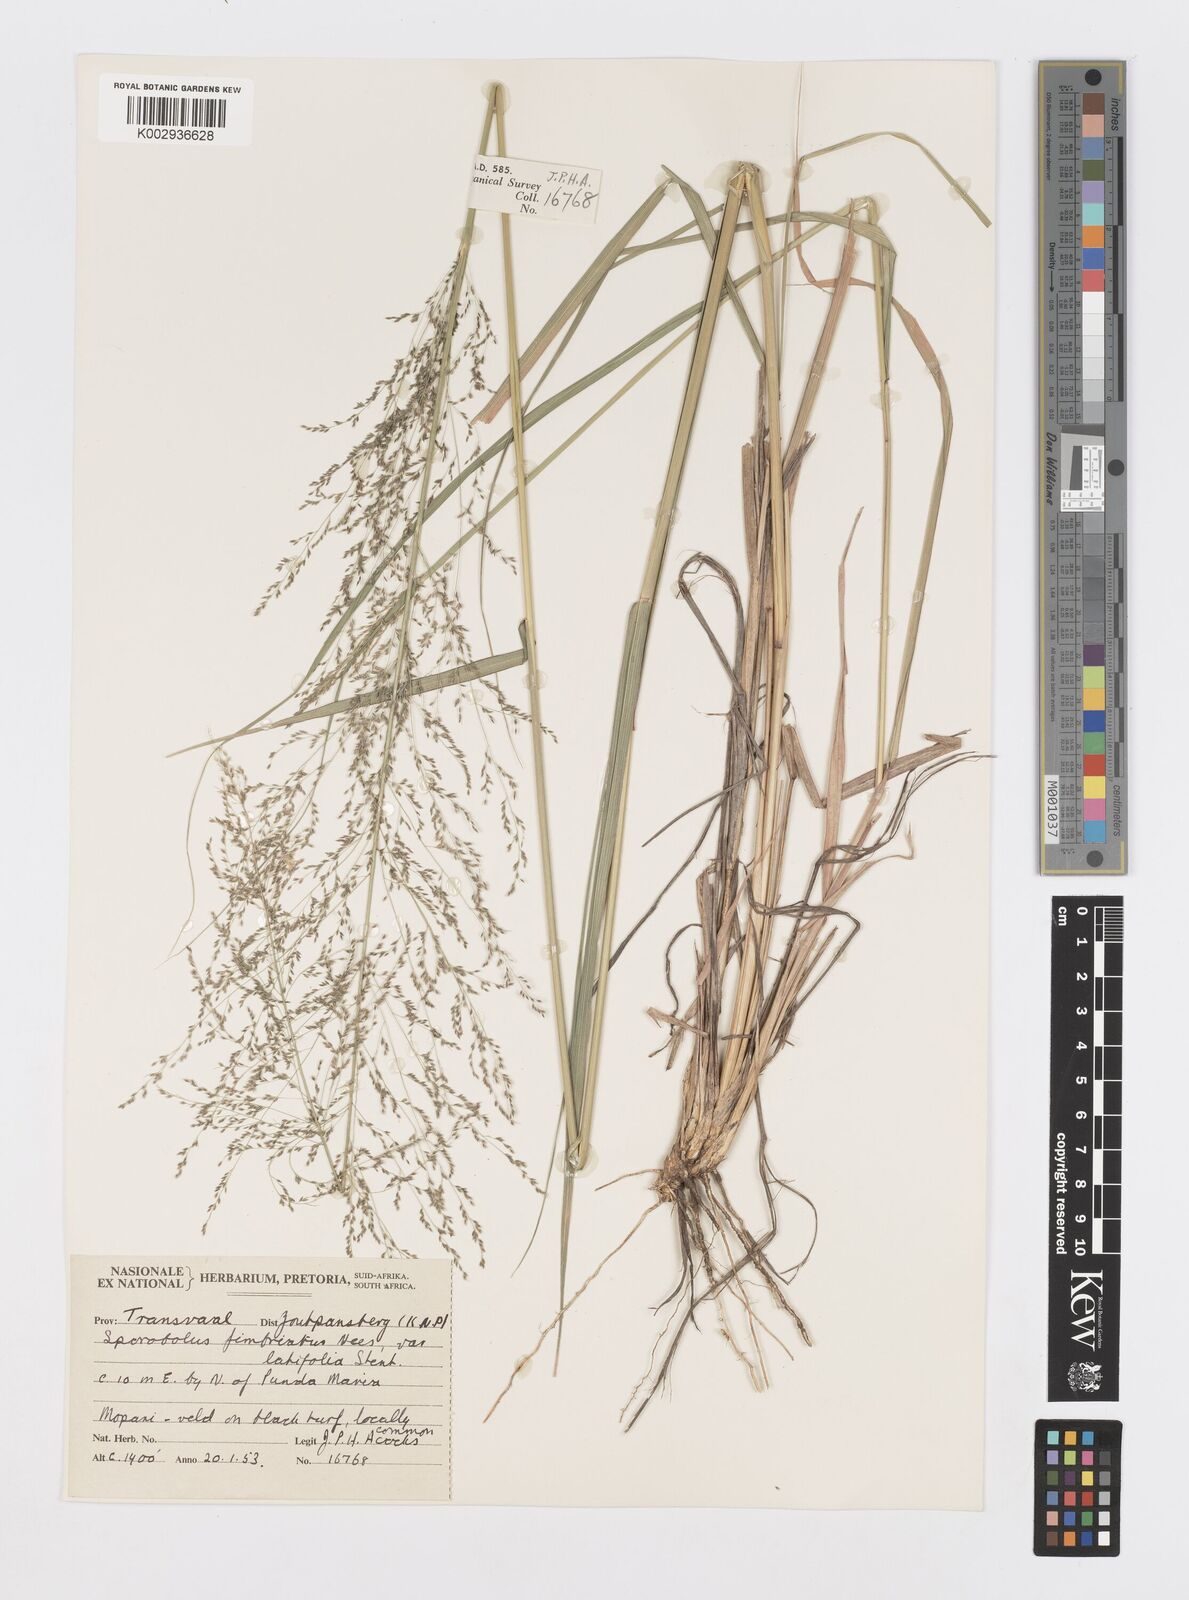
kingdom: Plantae
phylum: Tracheophyta
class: Liliopsida
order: Poales
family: Poaceae
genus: Sporobolus
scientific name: Sporobolus fimbriatus
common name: Fringed dropseed
